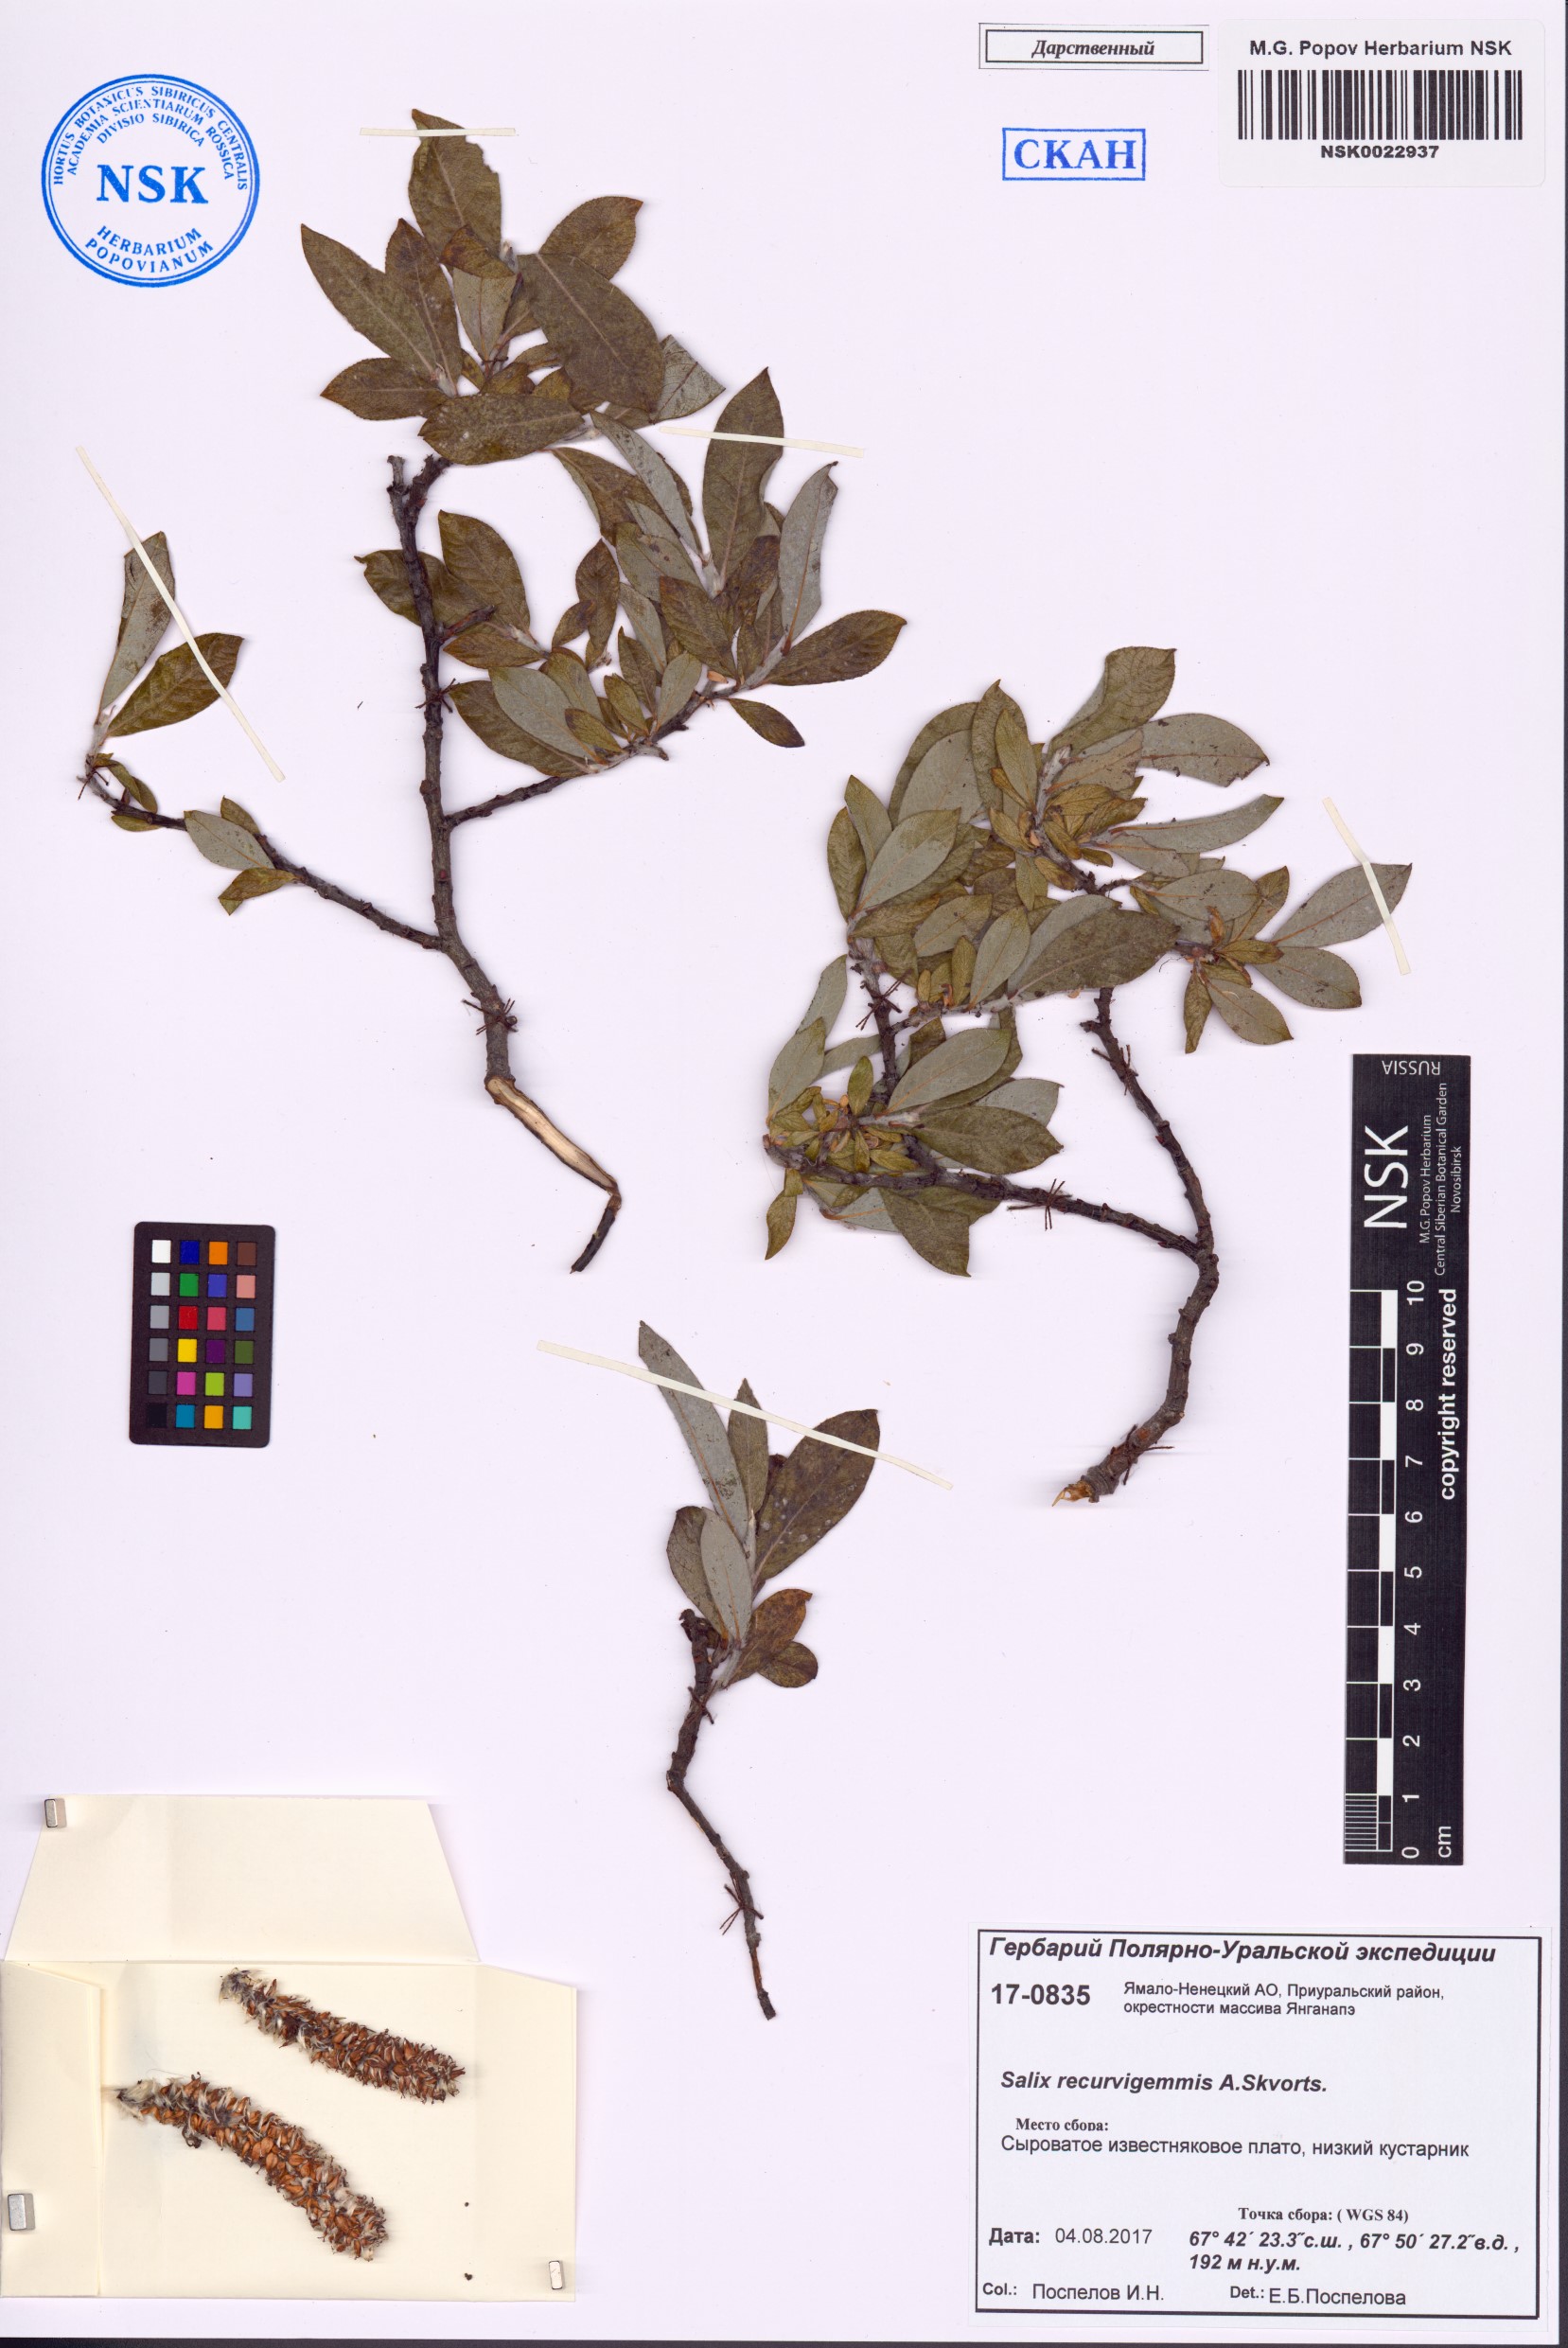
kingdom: Plantae
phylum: Tracheophyta
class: Magnoliopsida
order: Malpighiales
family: Salicaceae
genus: Salix
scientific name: Salix recurvigemmata
